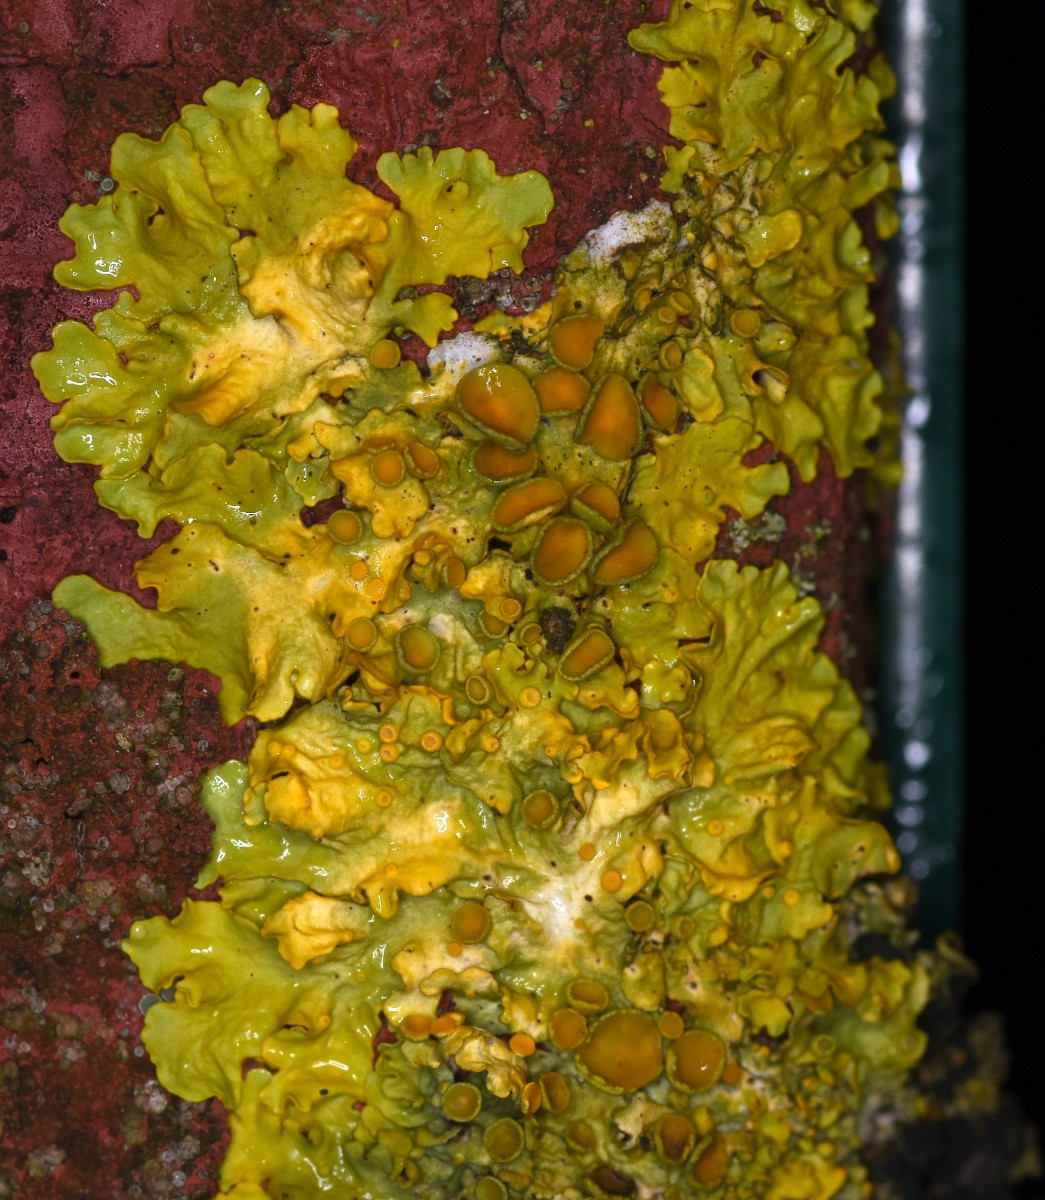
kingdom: Fungi
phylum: Ascomycota
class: Lecanoromycetes
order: Teloschistales
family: Teloschistaceae
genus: Xanthoria
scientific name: Xanthoria parietina
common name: almindelig væggelav
